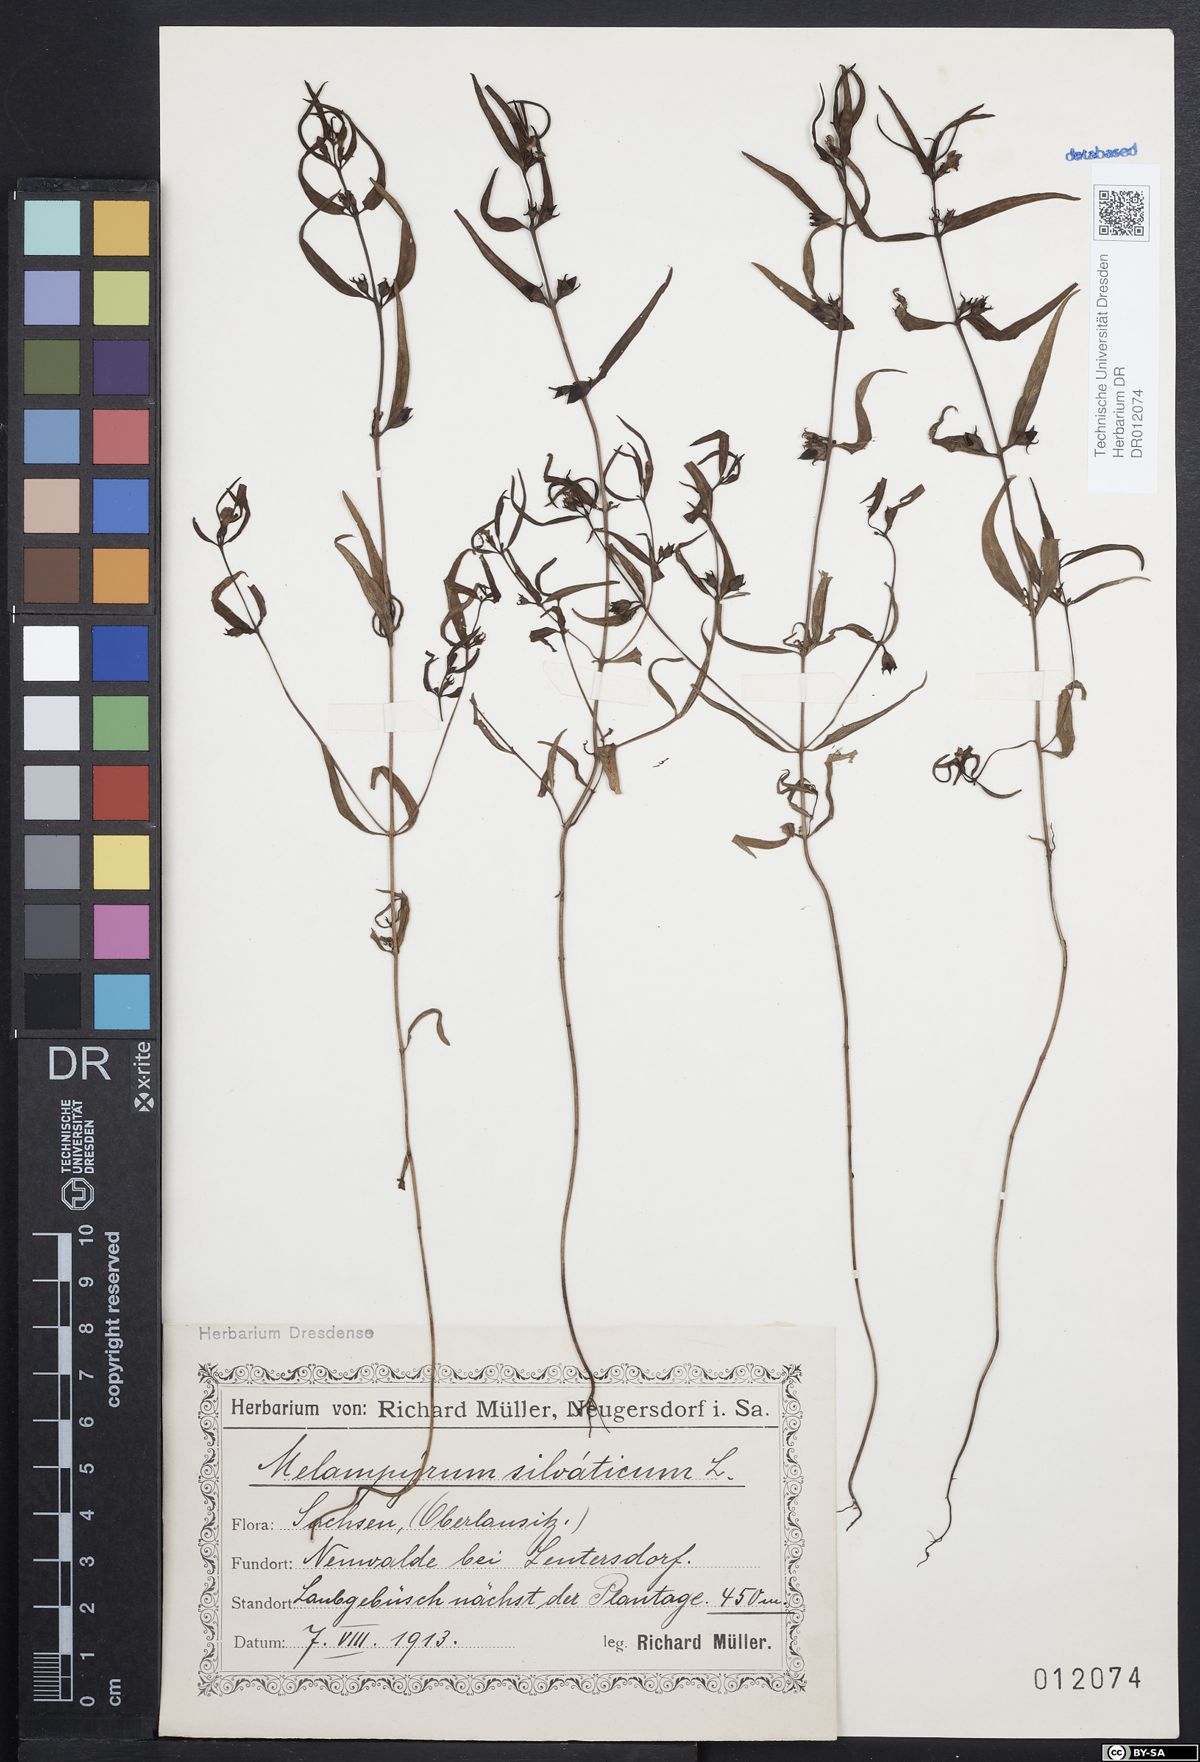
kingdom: Plantae
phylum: Tracheophyta
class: Magnoliopsida
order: Lamiales
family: Orobanchaceae
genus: Melampyrum
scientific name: Melampyrum sylvaticum
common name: Small cow-wheat
